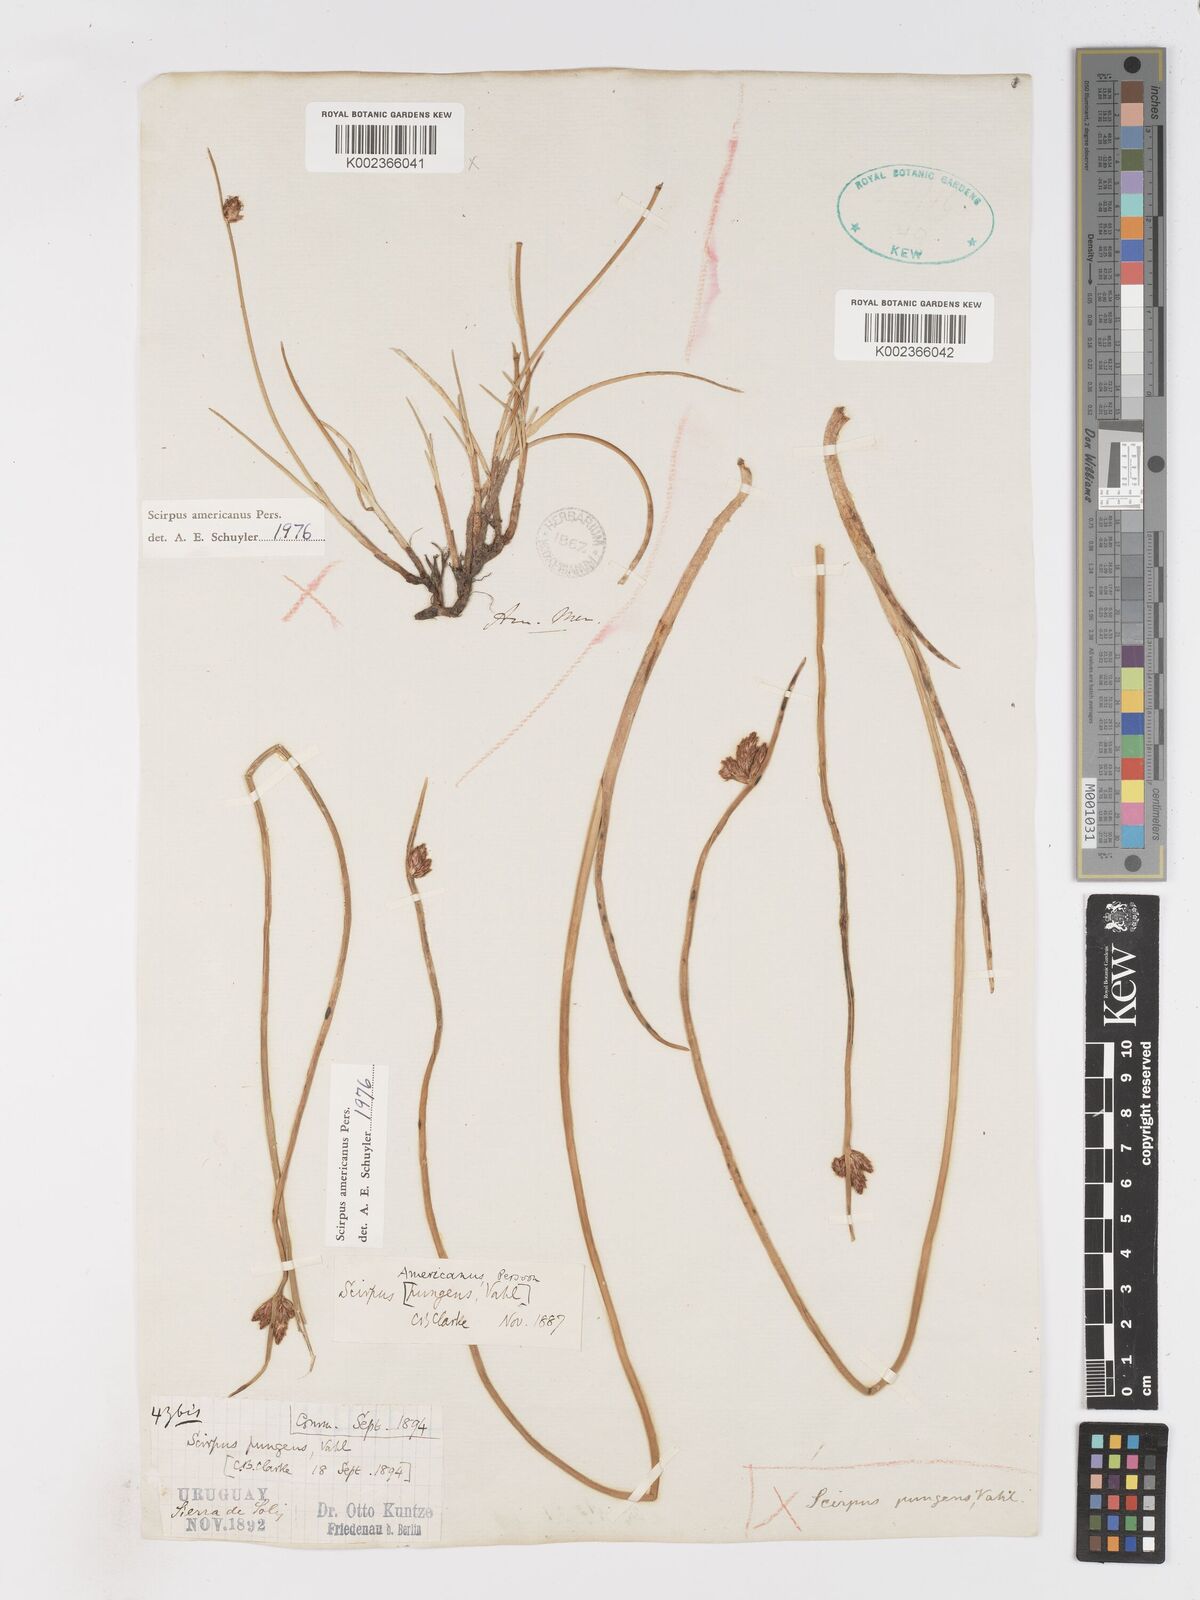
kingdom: Plantae
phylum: Tracheophyta
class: Liliopsida
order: Poales
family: Cyperaceae
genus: Schoenoplectus
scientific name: Schoenoplectus americanus
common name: American three-square bulrush
